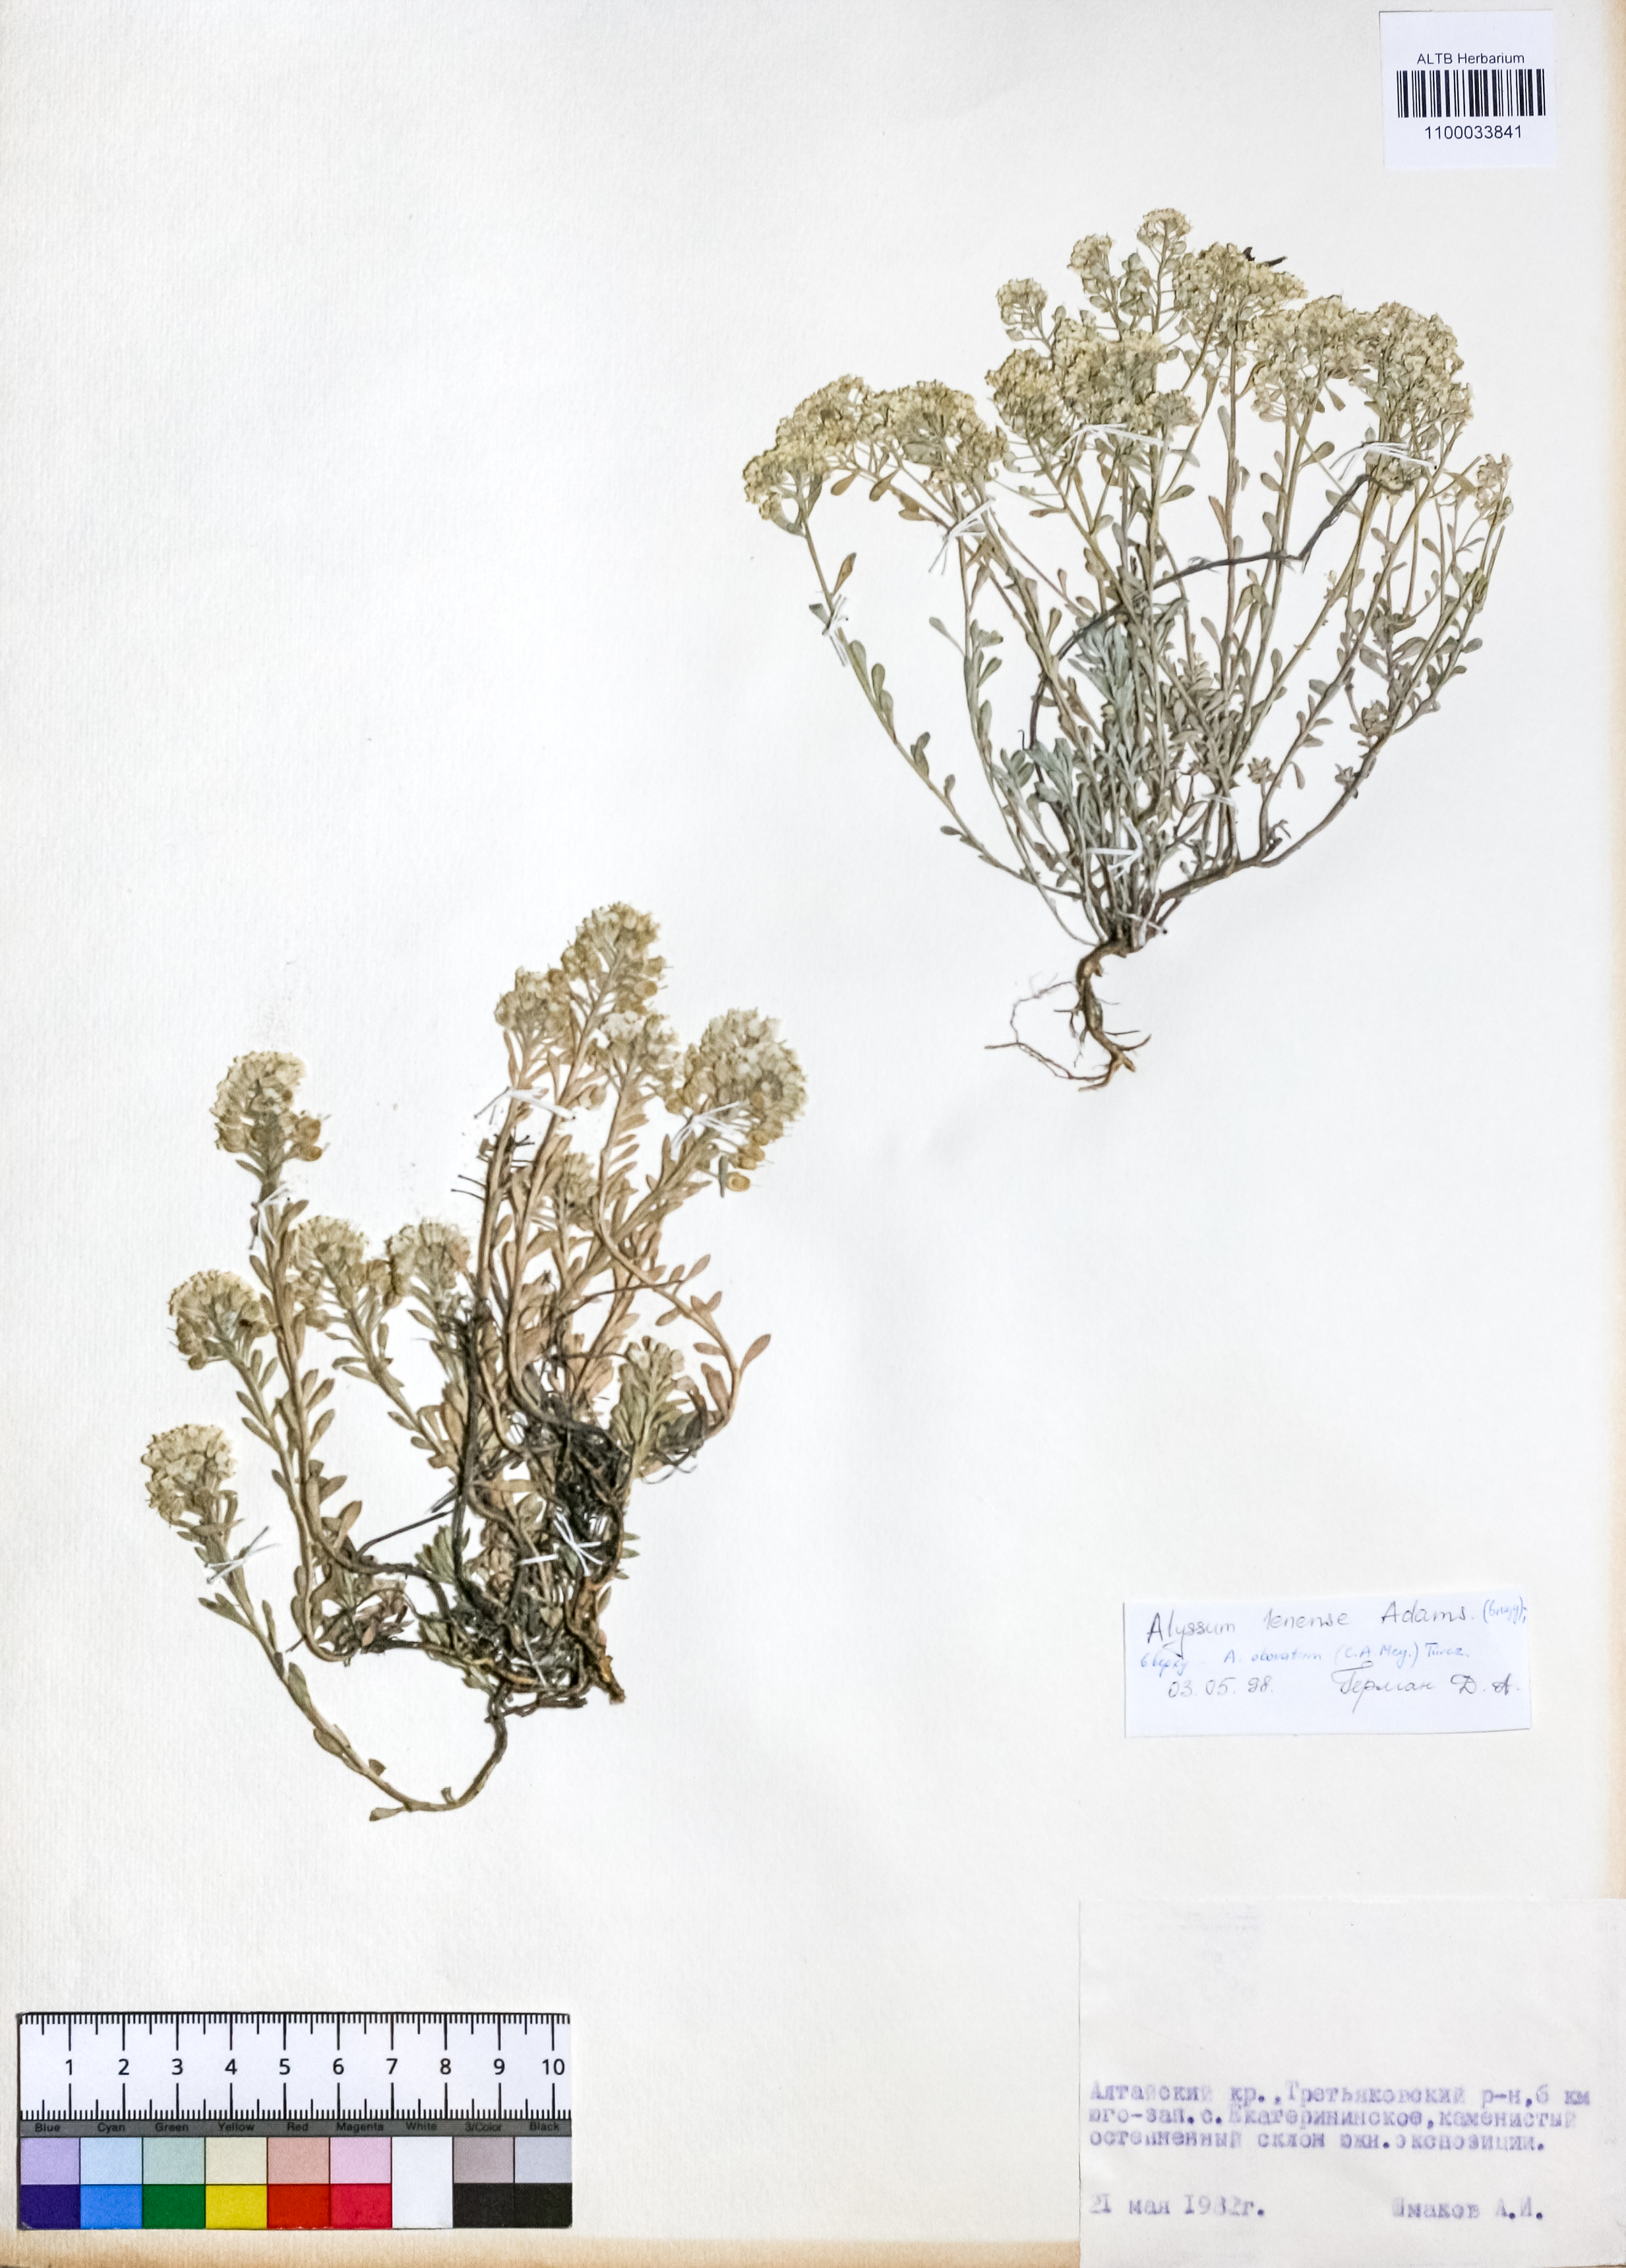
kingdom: Plantae
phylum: Tracheophyta
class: Magnoliopsida
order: Brassicales
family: Brassicaceae
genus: Alyssum
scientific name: Alyssum lenense
